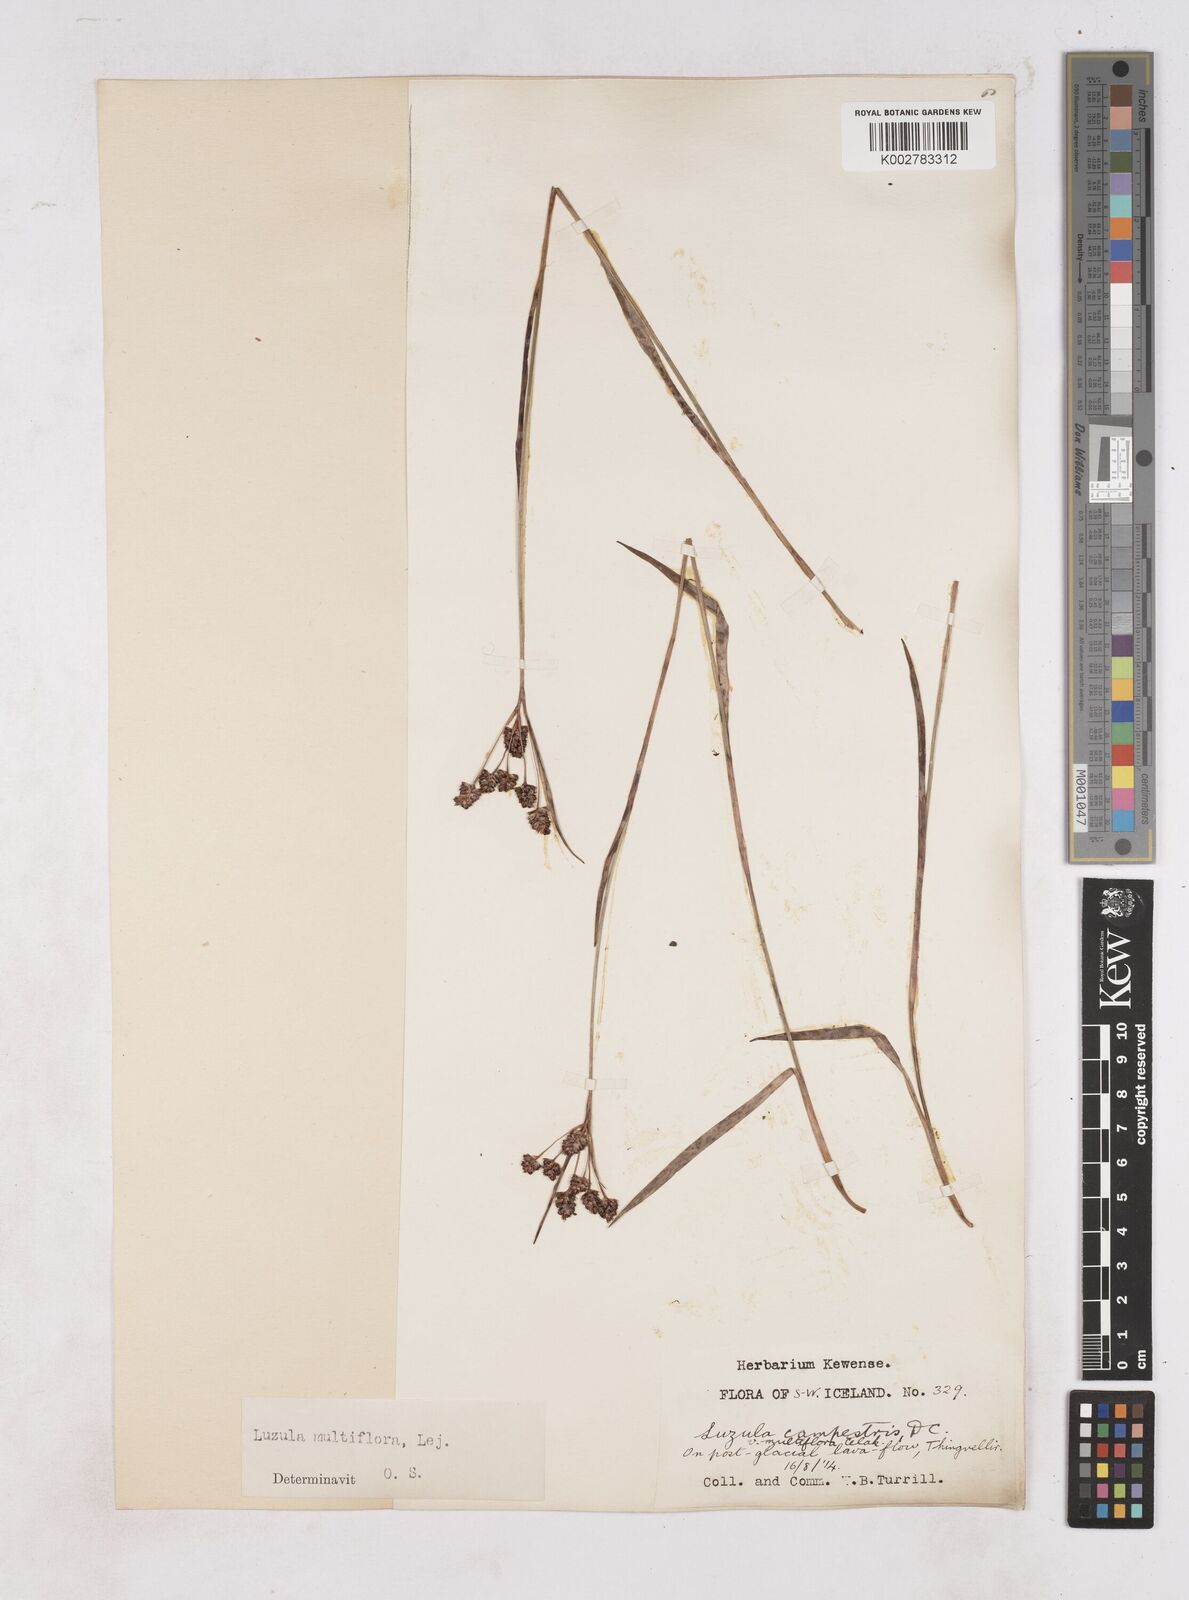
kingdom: Plantae
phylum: Tracheophyta
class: Liliopsida
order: Poales
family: Juncaceae
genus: Luzula
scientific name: Luzula multiflora
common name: Heath wood-rush
